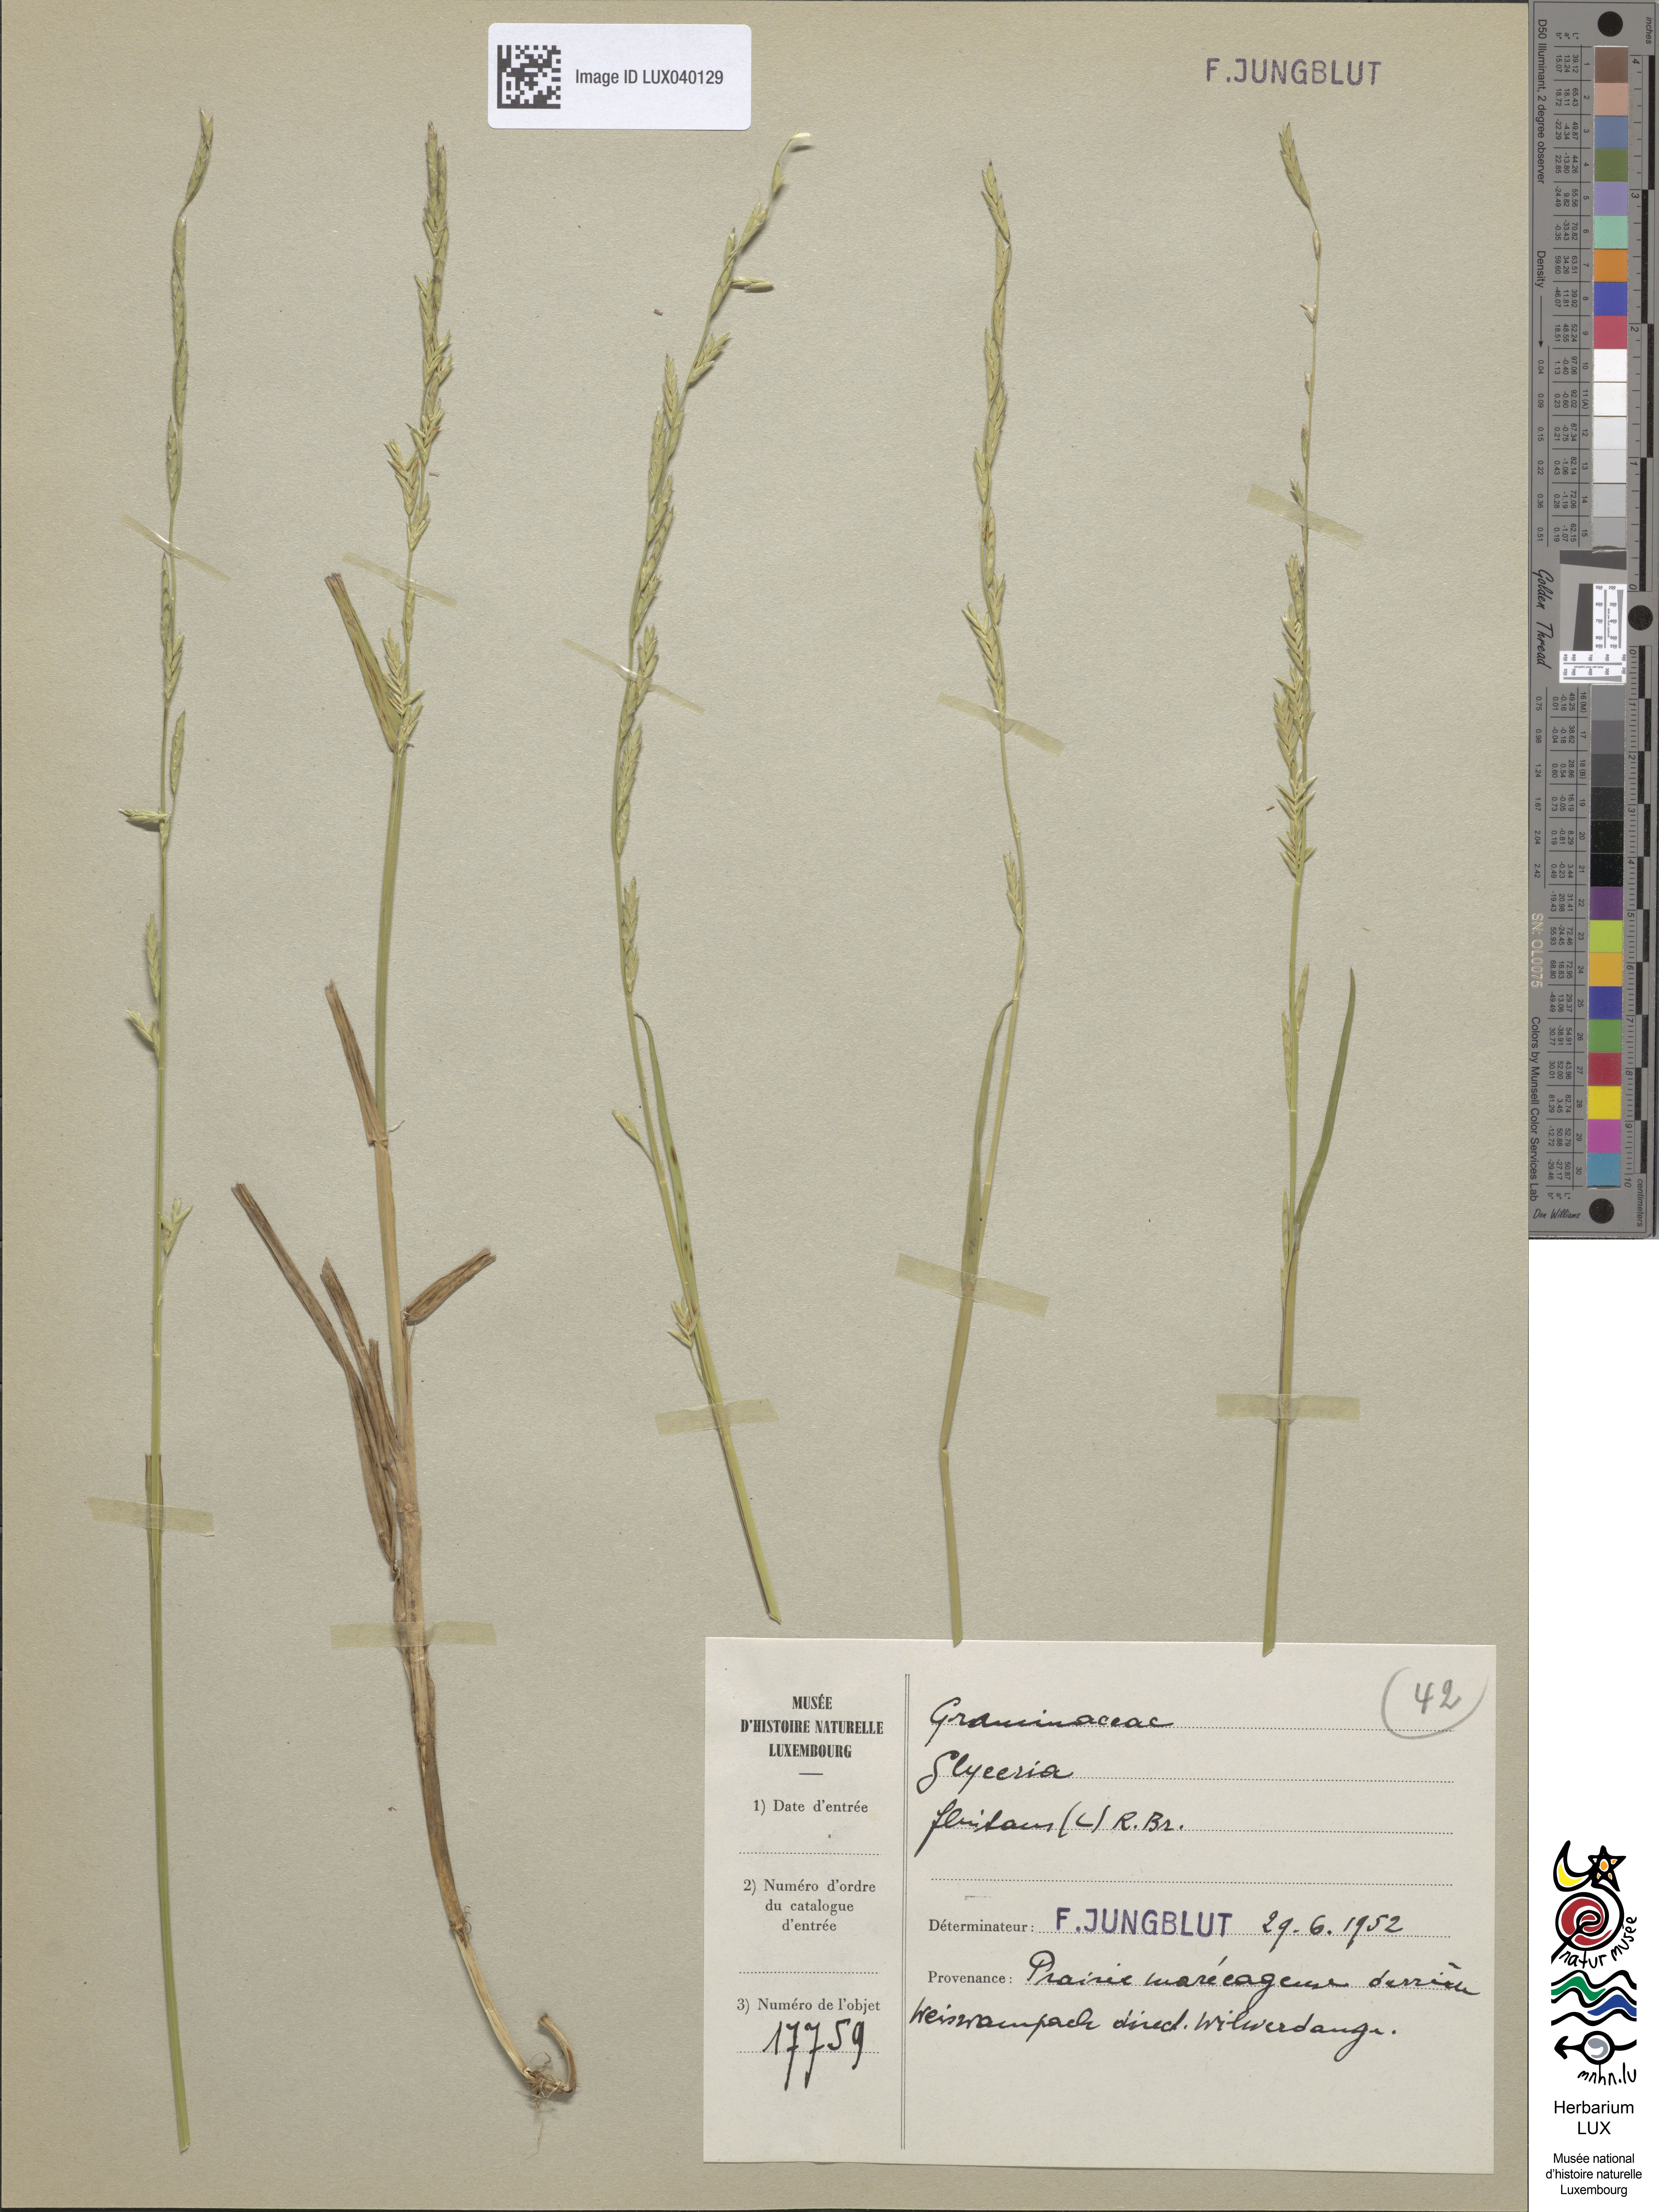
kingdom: Plantae
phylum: Tracheophyta
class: Liliopsida
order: Poales
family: Poaceae
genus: Glyceria
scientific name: Glyceria fluitans
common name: Floating sweet-grass
